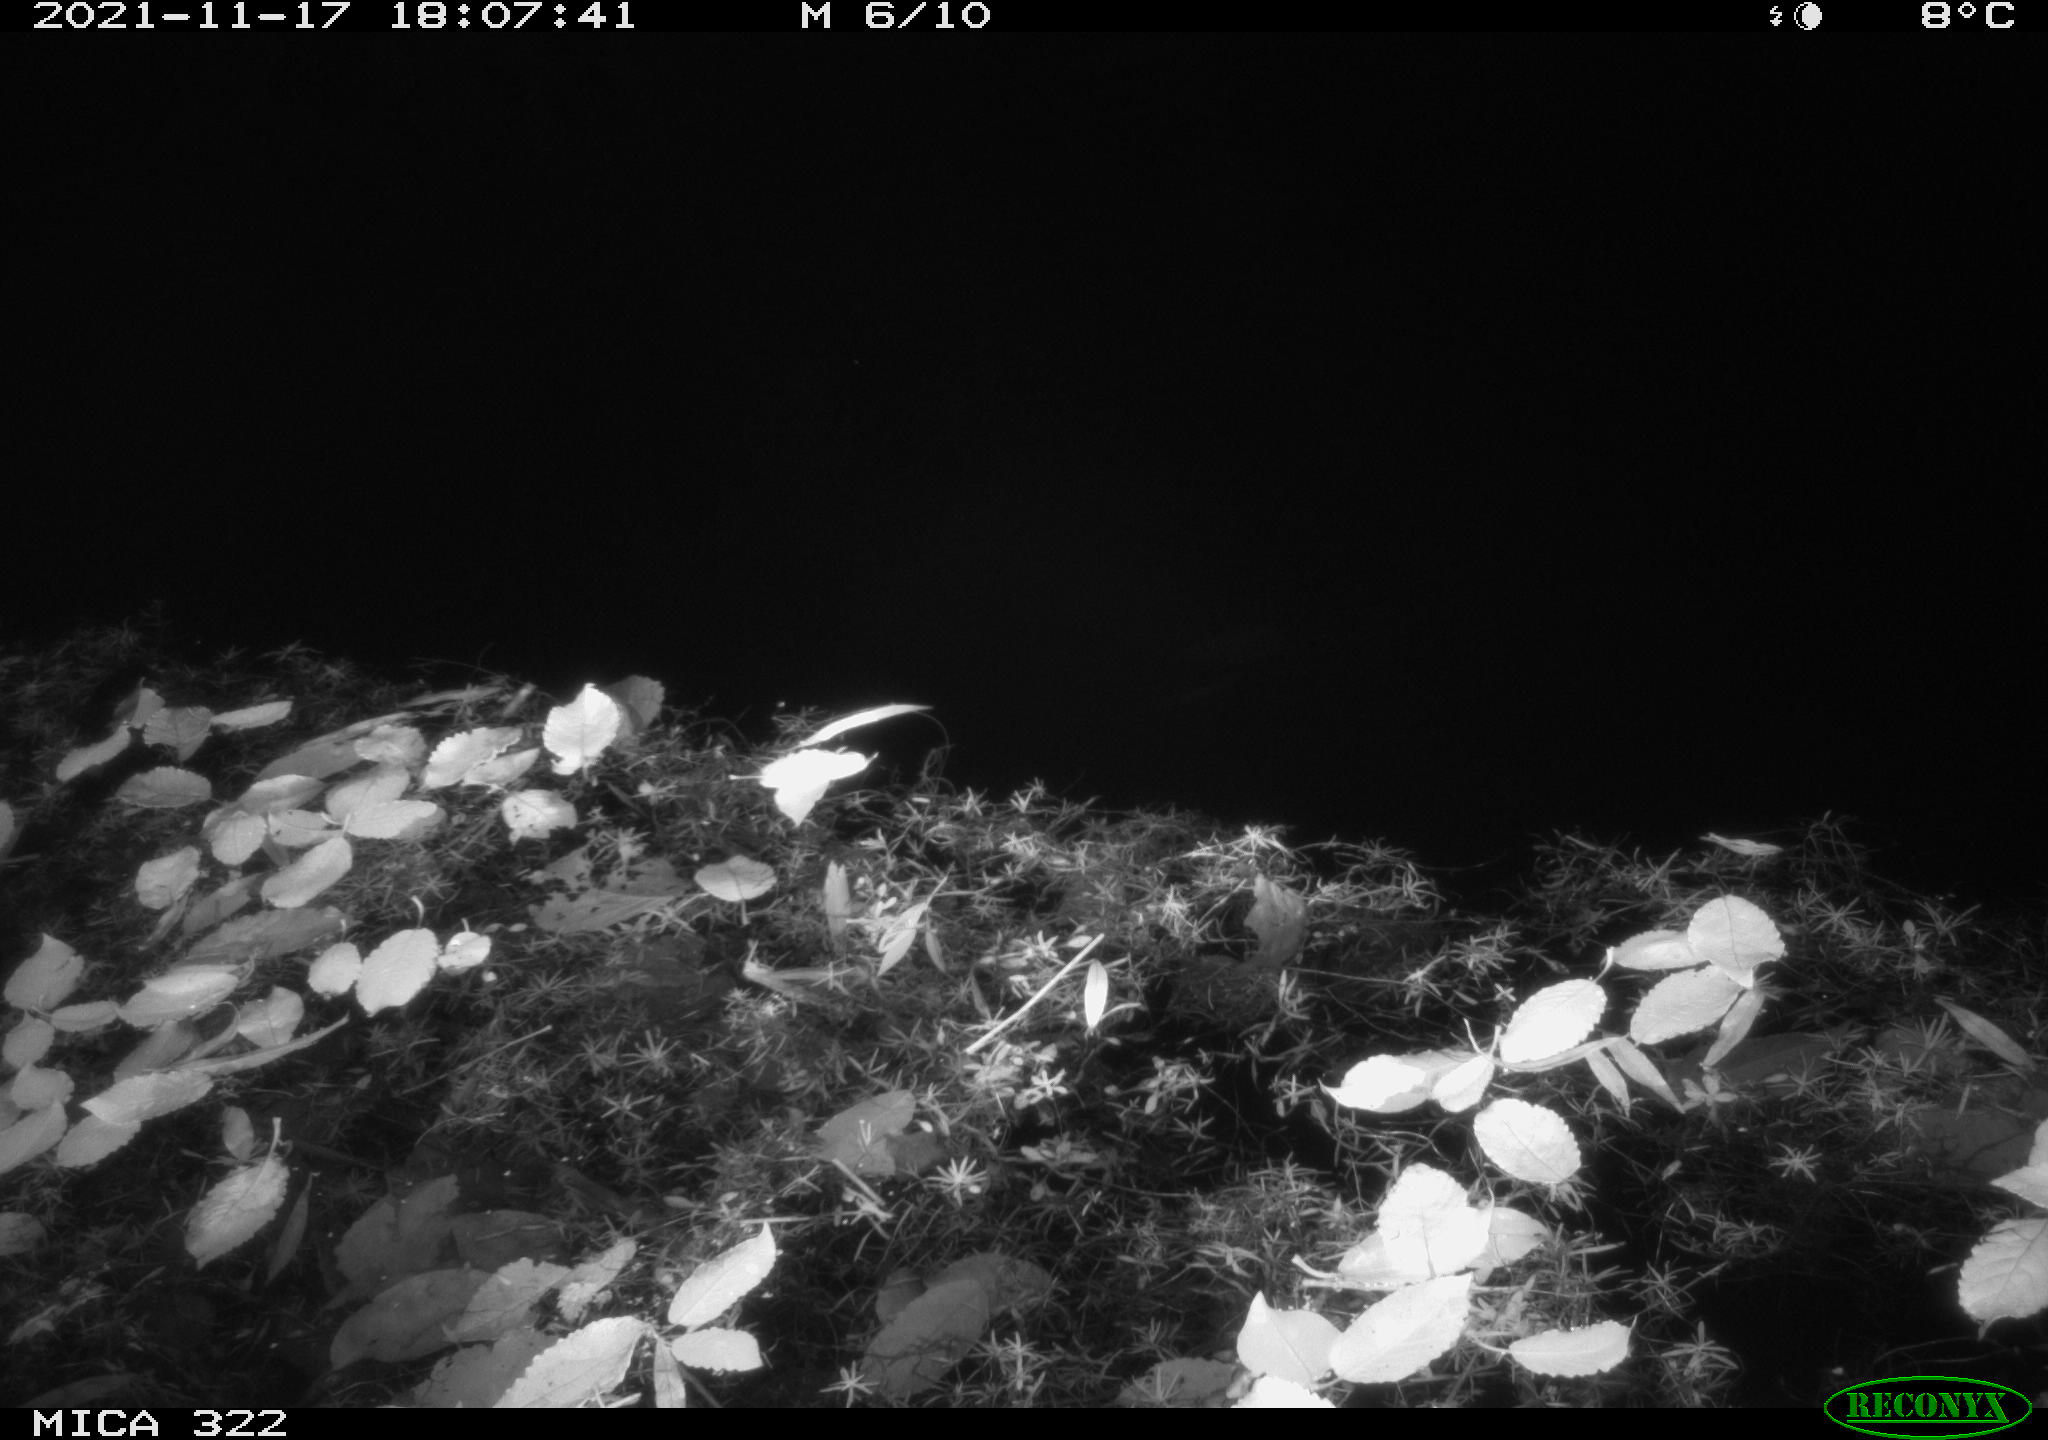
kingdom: Animalia
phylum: Chordata
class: Mammalia
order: Rodentia
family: Muridae
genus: Rattus
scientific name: Rattus norvegicus
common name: Brown rat
